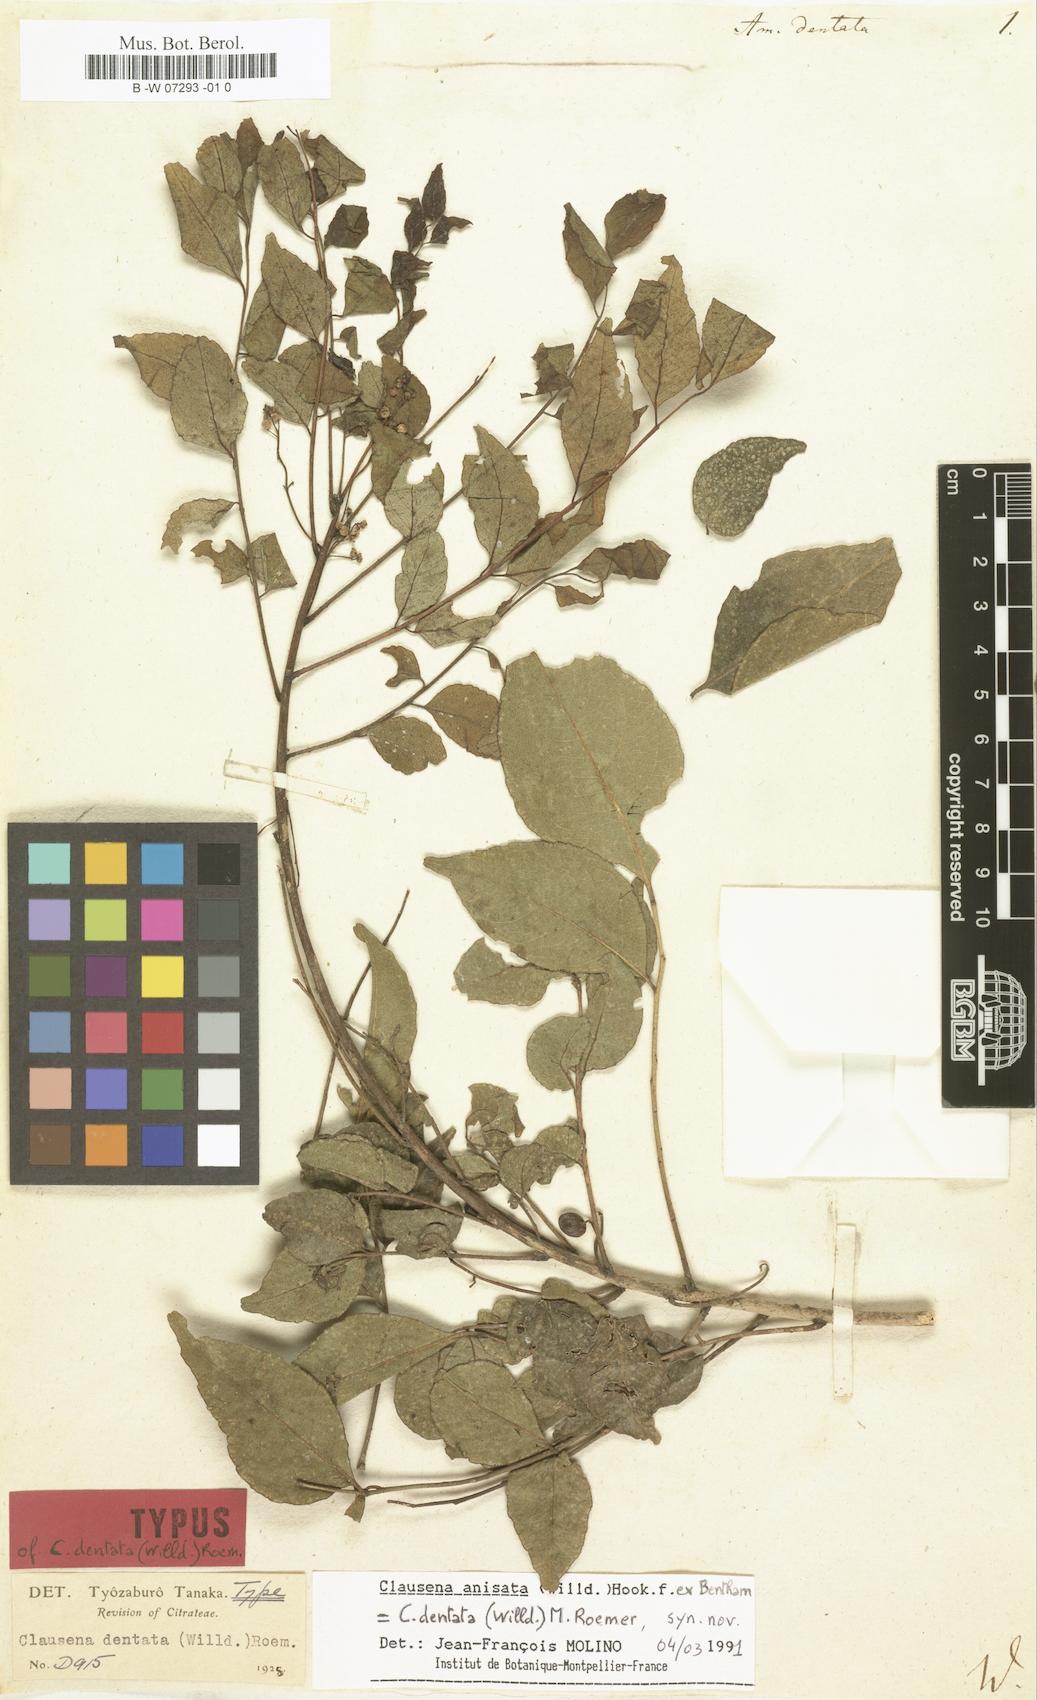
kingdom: Plantae
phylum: Tracheophyta
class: Magnoliopsida
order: Sapindales
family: Rutaceae
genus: Clausena
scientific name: Clausena anisata
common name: Horsewood
